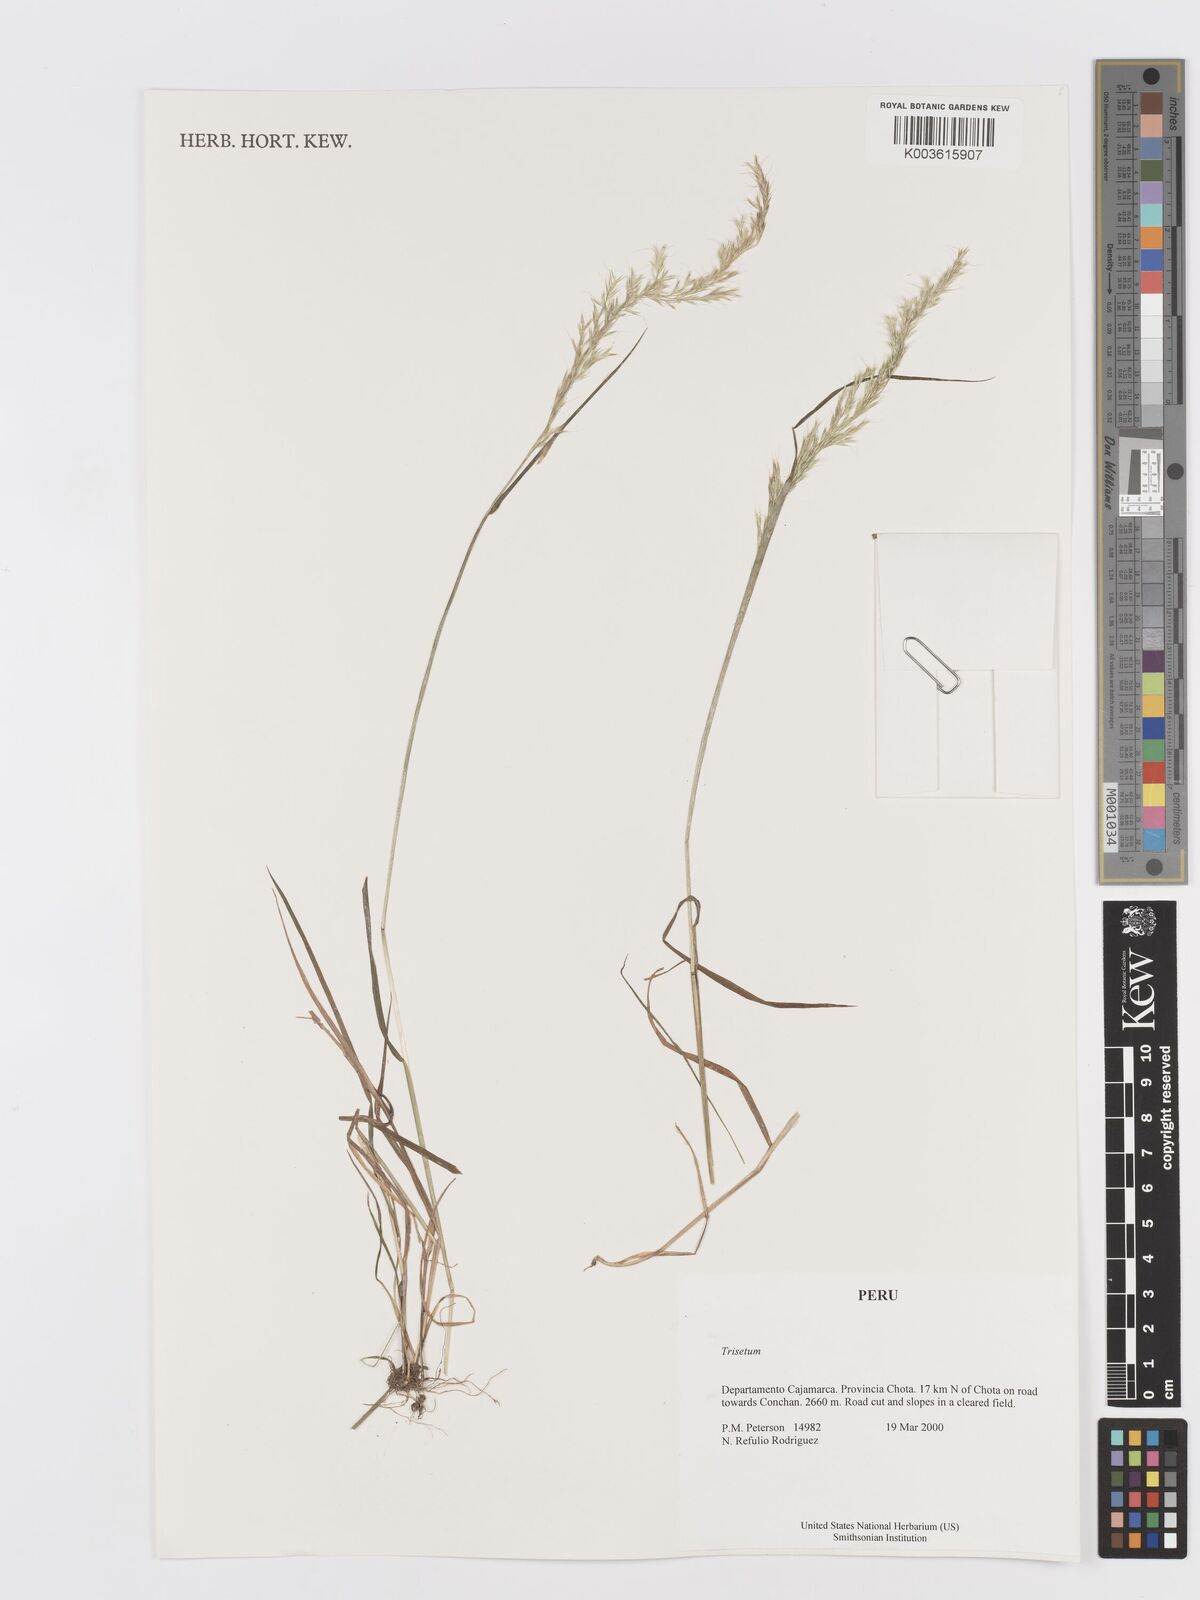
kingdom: Plantae
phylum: Tracheophyta
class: Liliopsida
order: Poales
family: Poaceae
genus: Trisetum
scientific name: Trisetum
